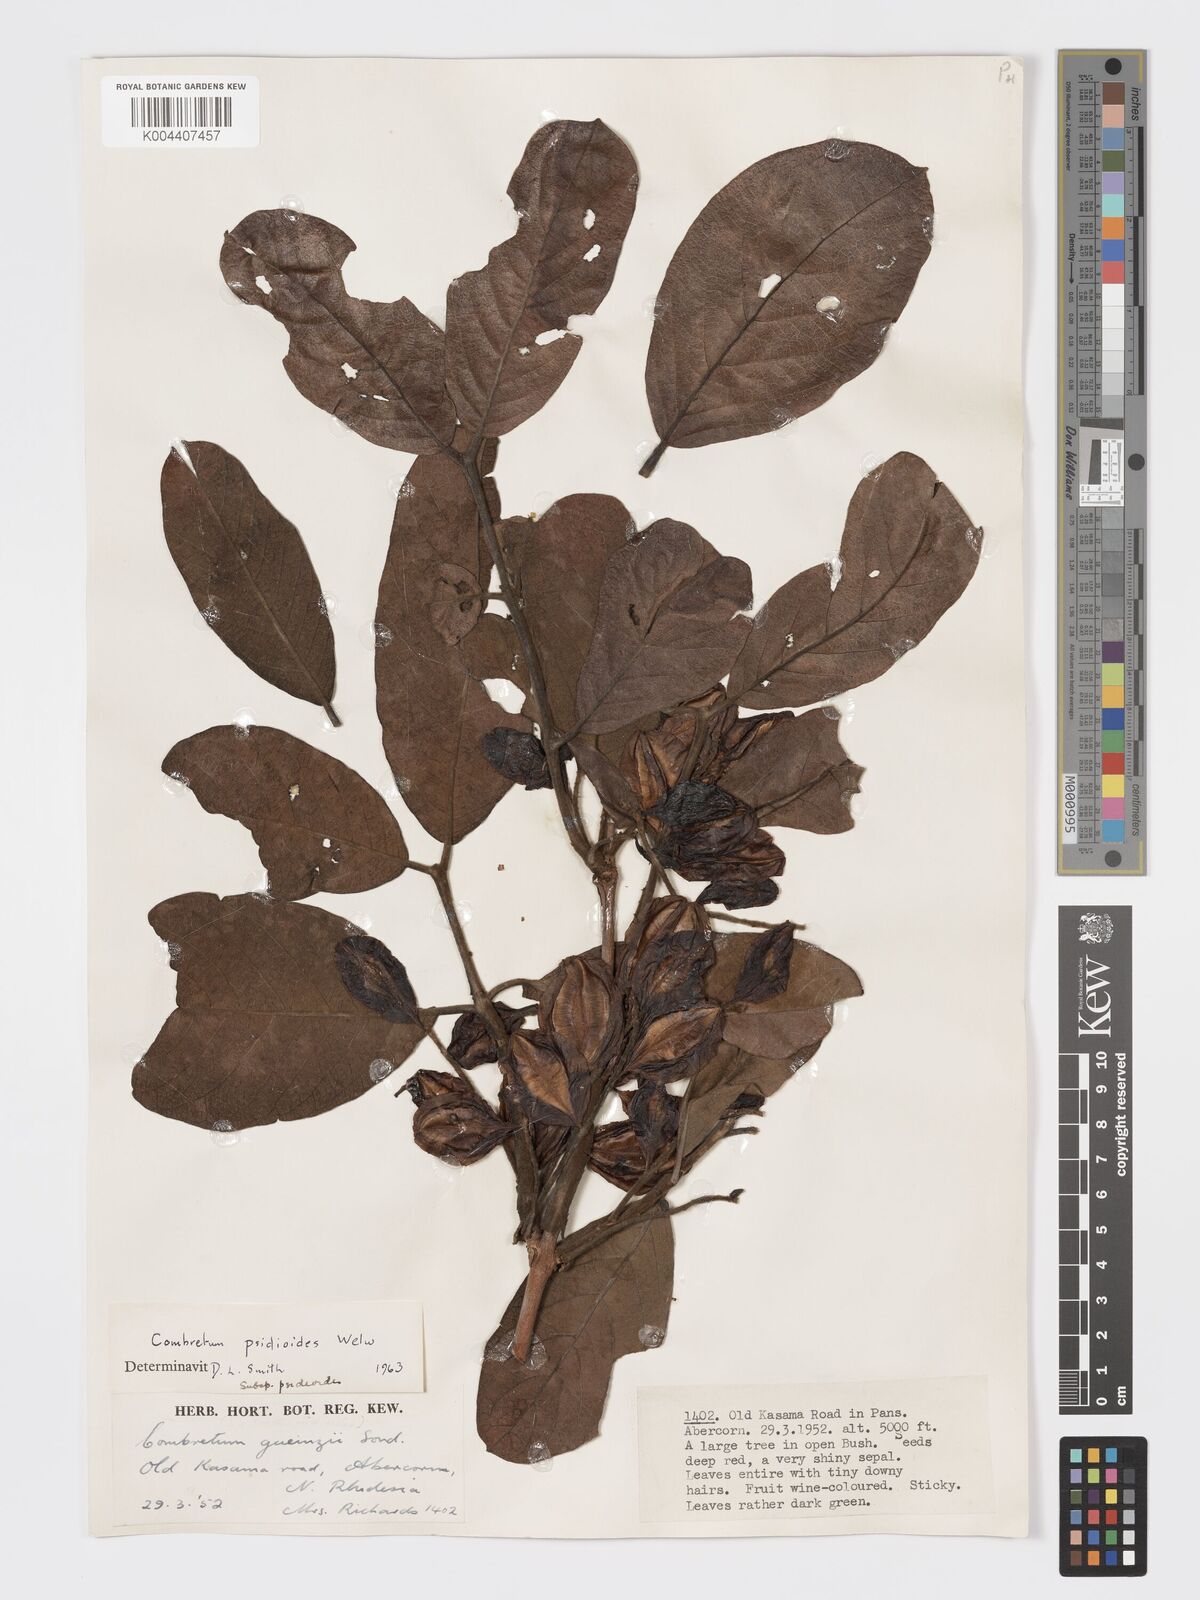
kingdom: Plantae
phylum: Tracheophyta
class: Magnoliopsida
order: Myrtales
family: Combretaceae
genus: Combretum
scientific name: Combretum psidioides
